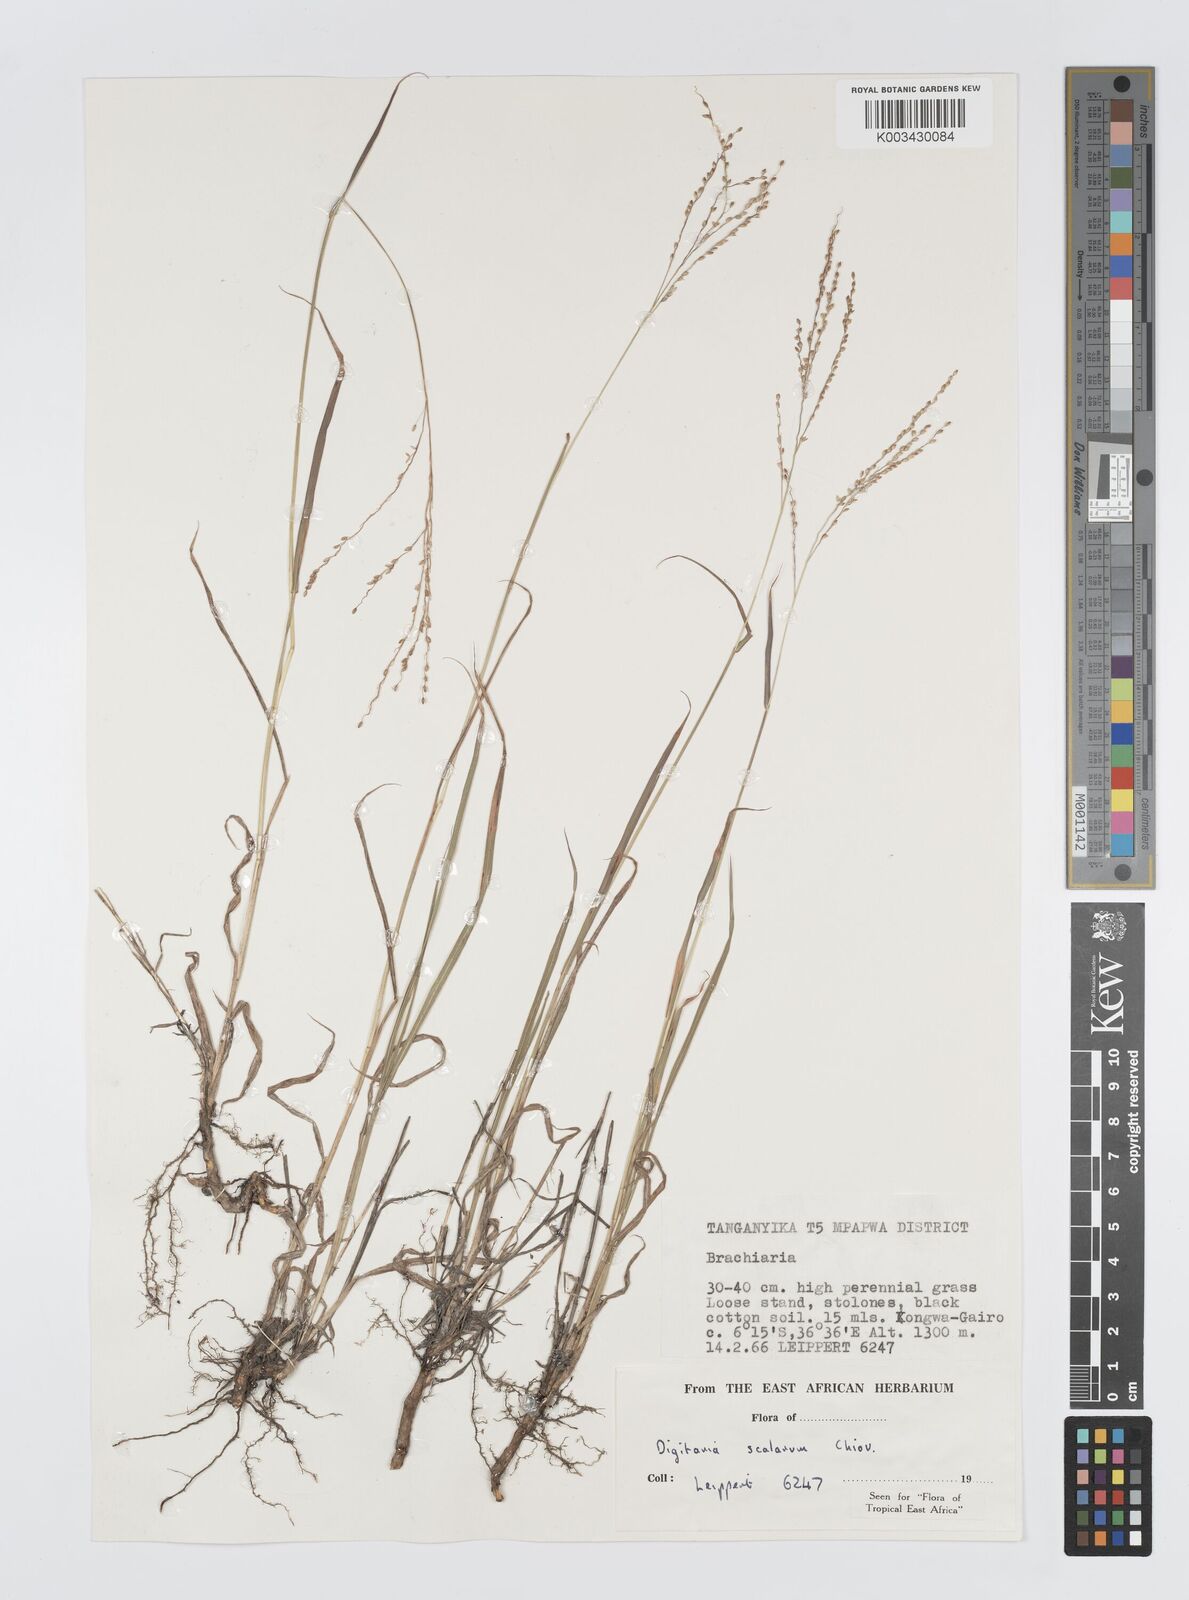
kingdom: Plantae
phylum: Tracheophyta
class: Liliopsida
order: Poales
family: Poaceae
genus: Digitaria
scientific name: Digitaria abyssinica
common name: African couchgrass
